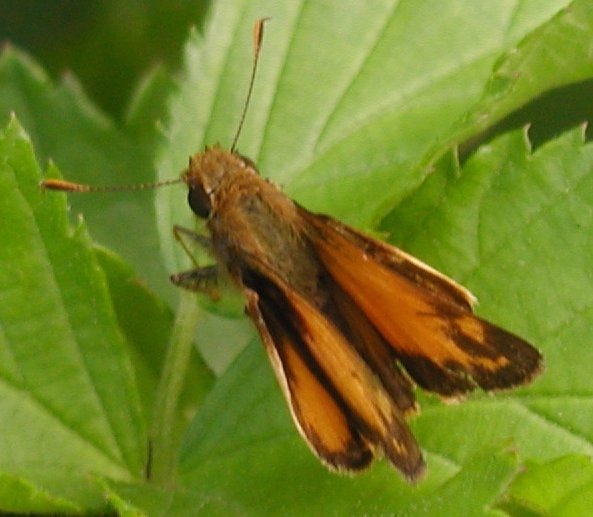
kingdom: Animalia
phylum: Arthropoda
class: Insecta
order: Lepidoptera
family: Hesperiidae
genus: Lon
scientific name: Lon zabulon
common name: Zabulon Skipper
